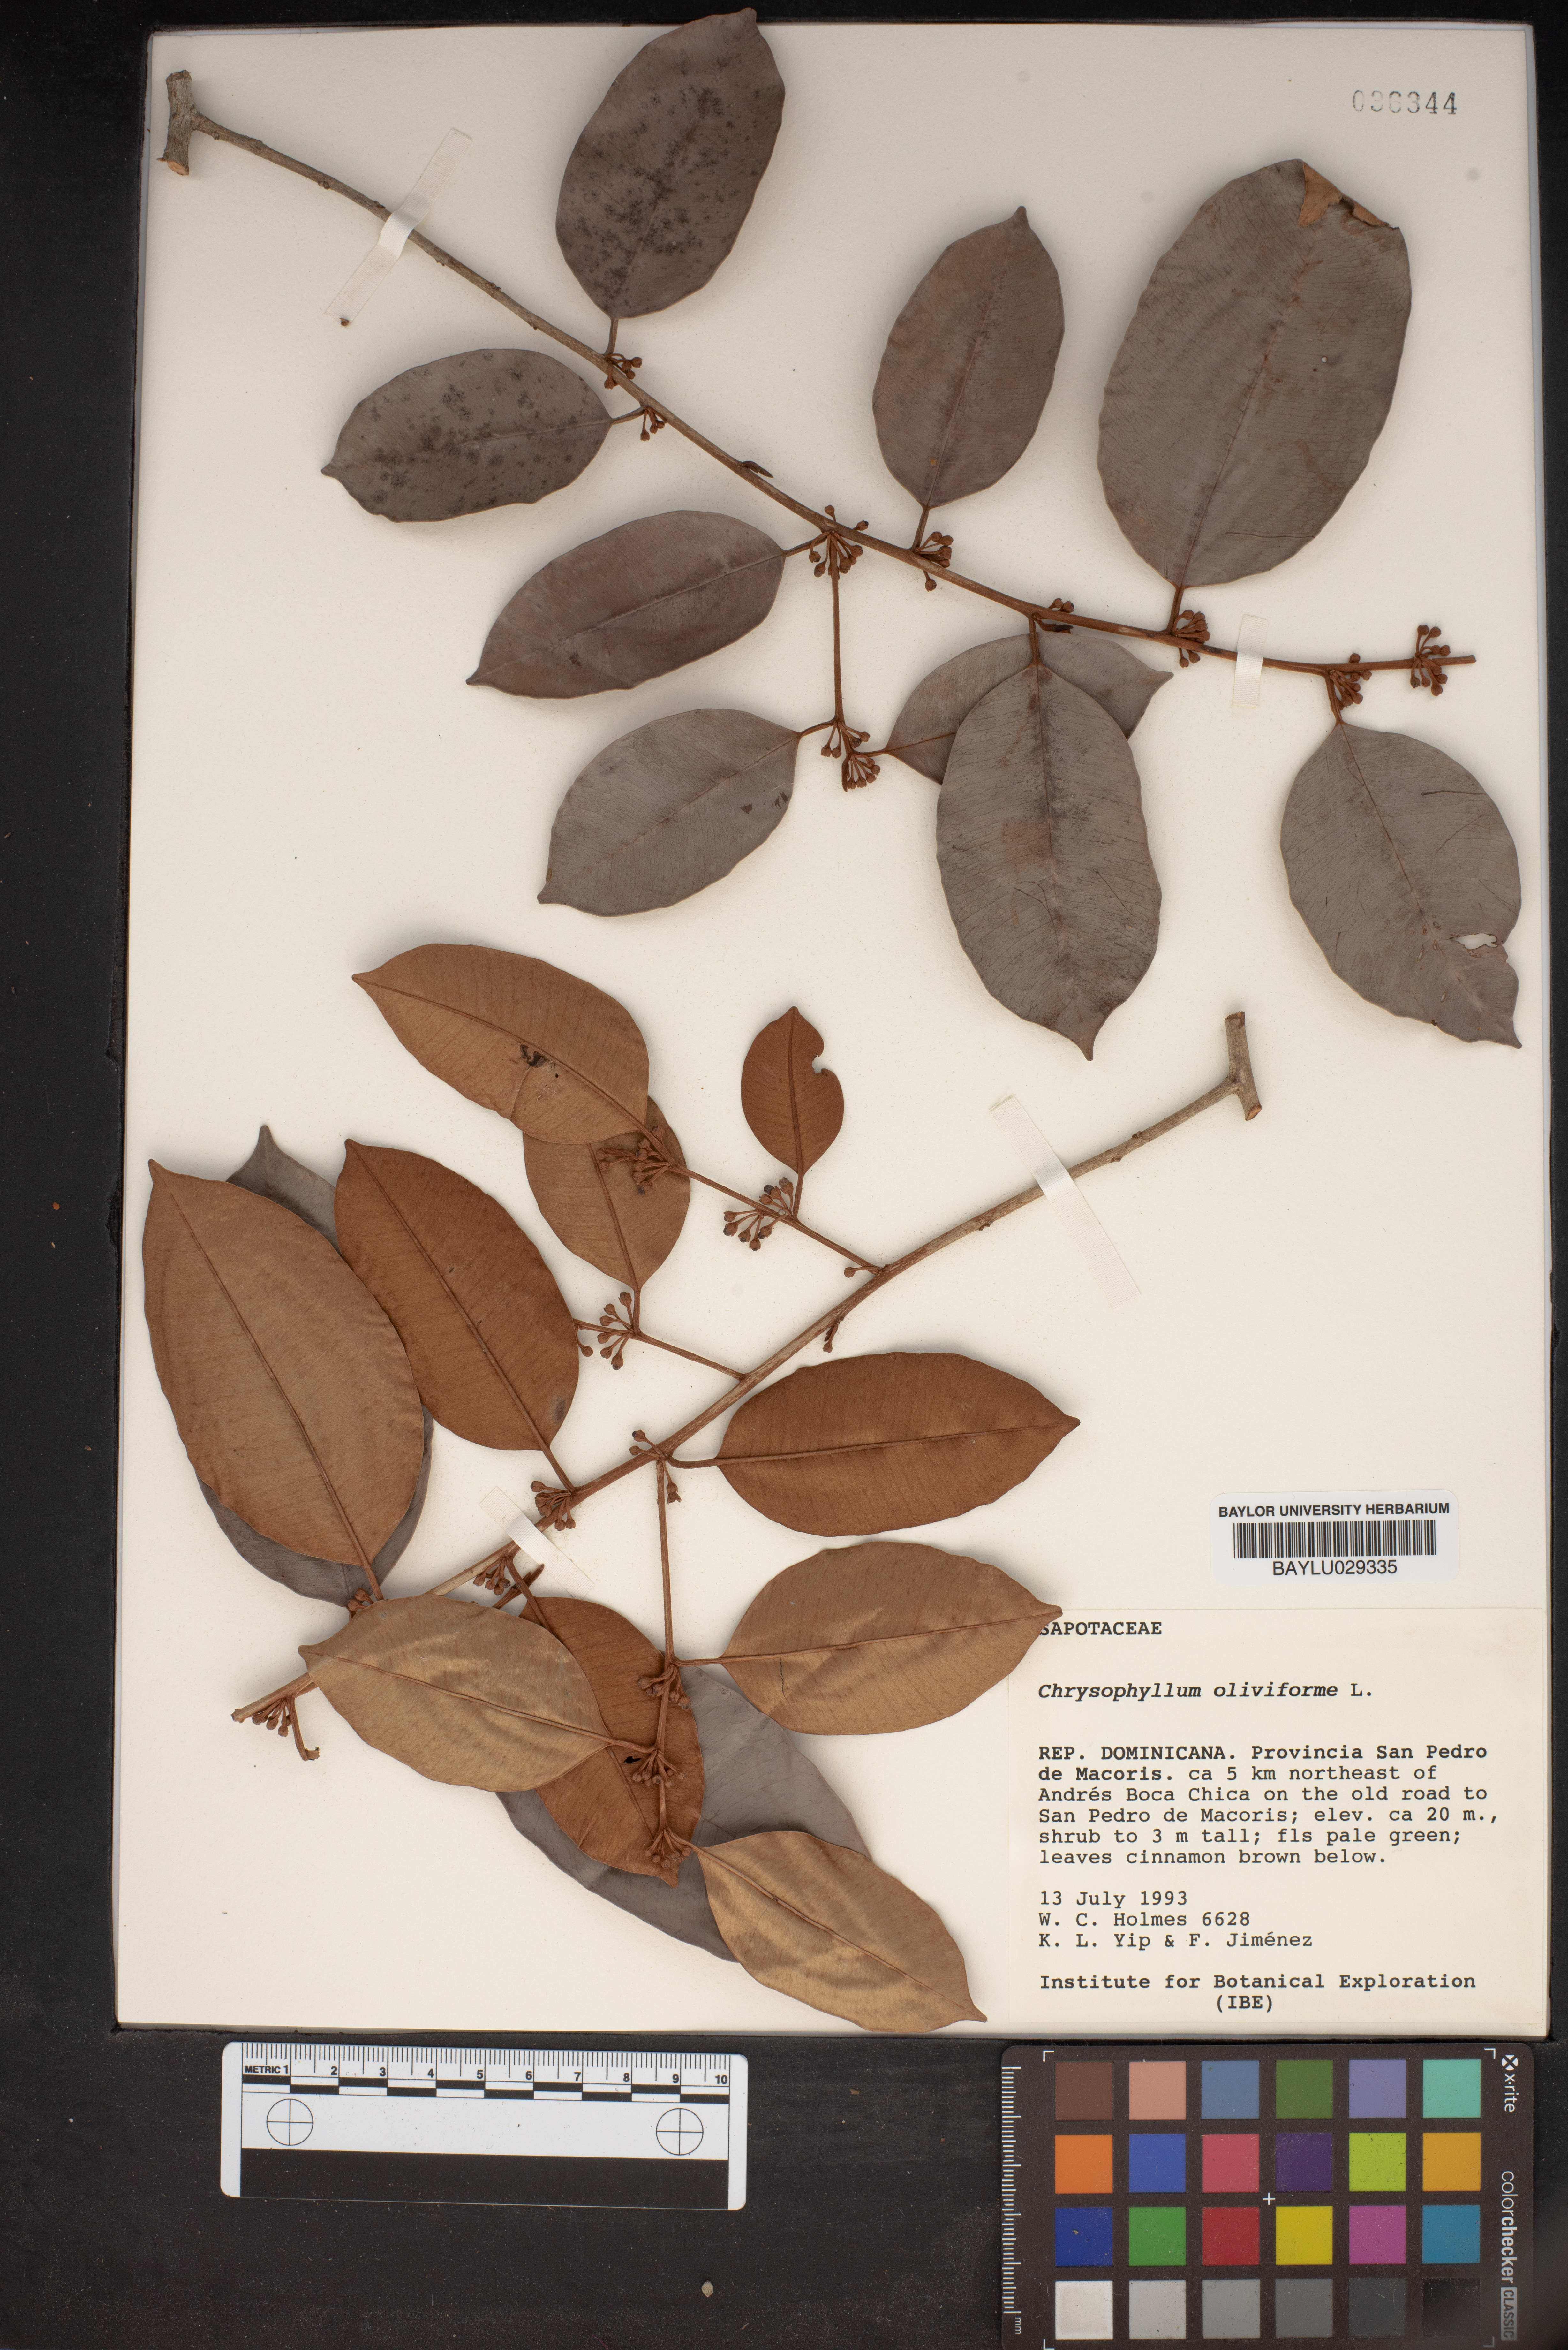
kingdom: Plantae
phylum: Tracheophyta
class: Magnoliopsida
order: Ericales
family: Sapotaceae
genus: Chrysophyllum
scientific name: Chrysophyllum oliviforme
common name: Satinleaf
